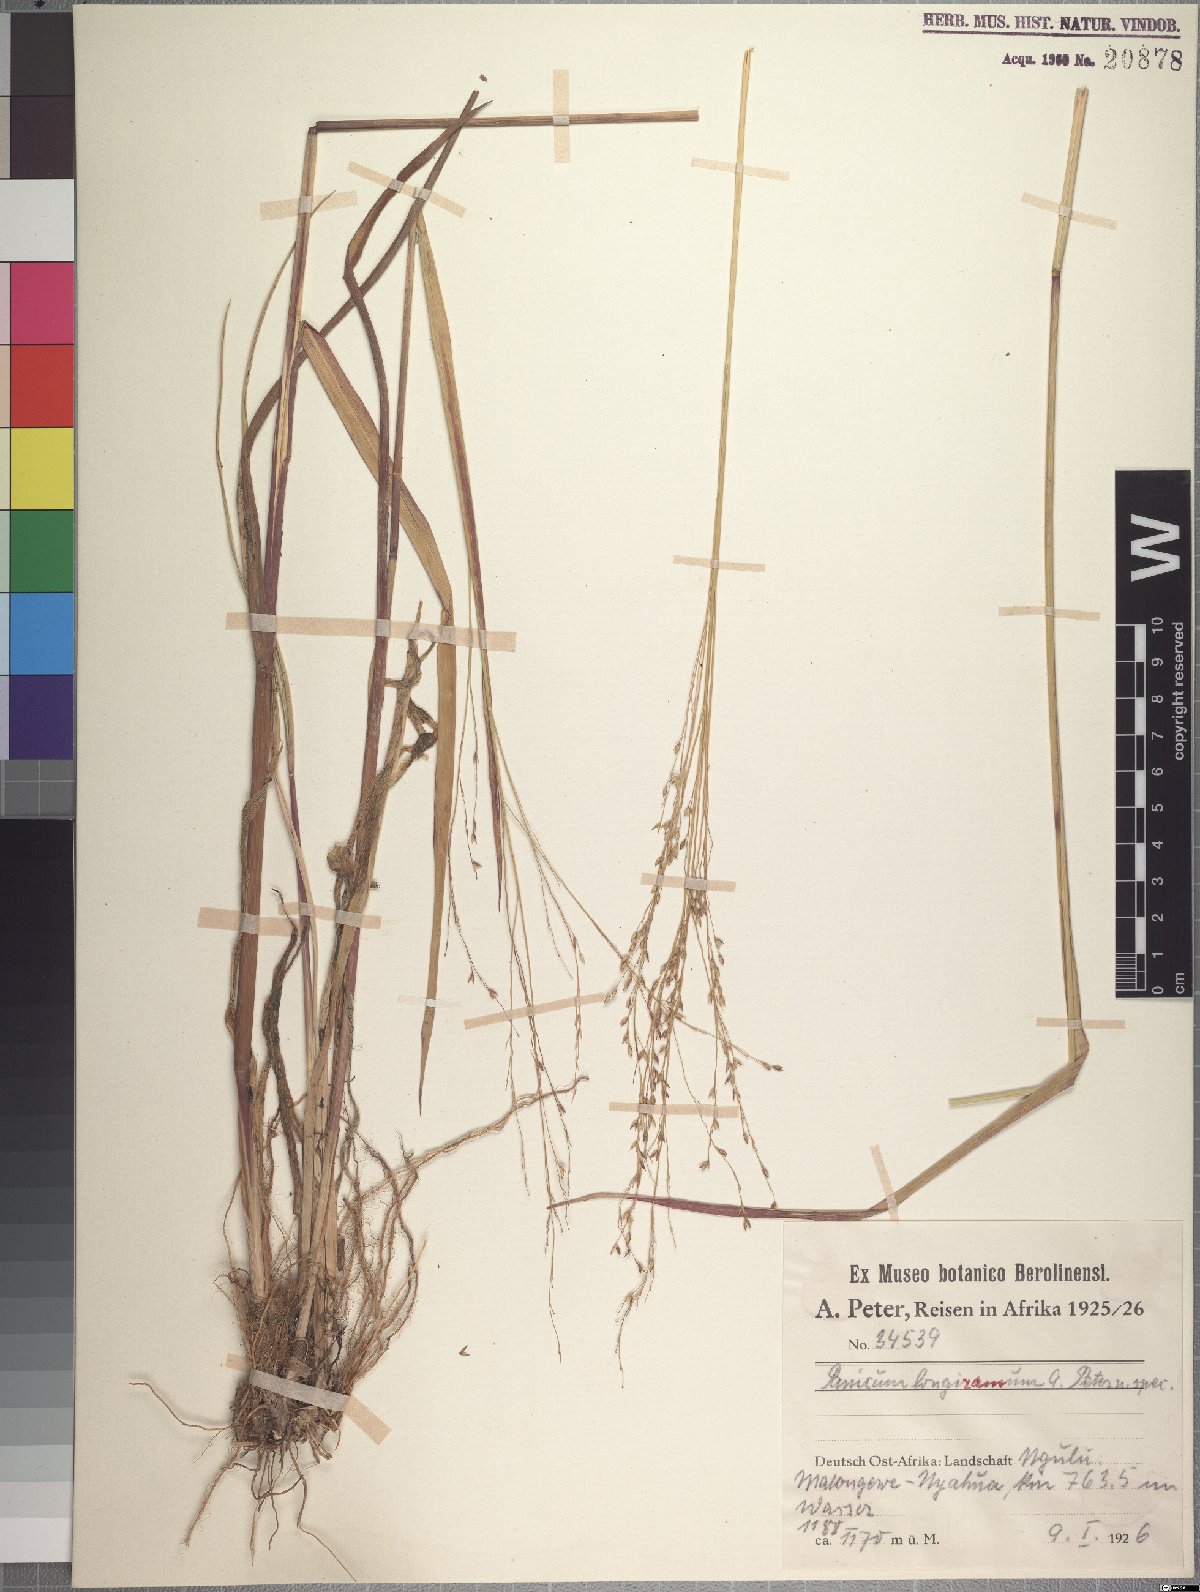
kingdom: Plantae
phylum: Tracheophyta
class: Liliopsida
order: Poales
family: Poaceae
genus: Panicum
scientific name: Panicum subalbidum
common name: Elbow buffalo grass
